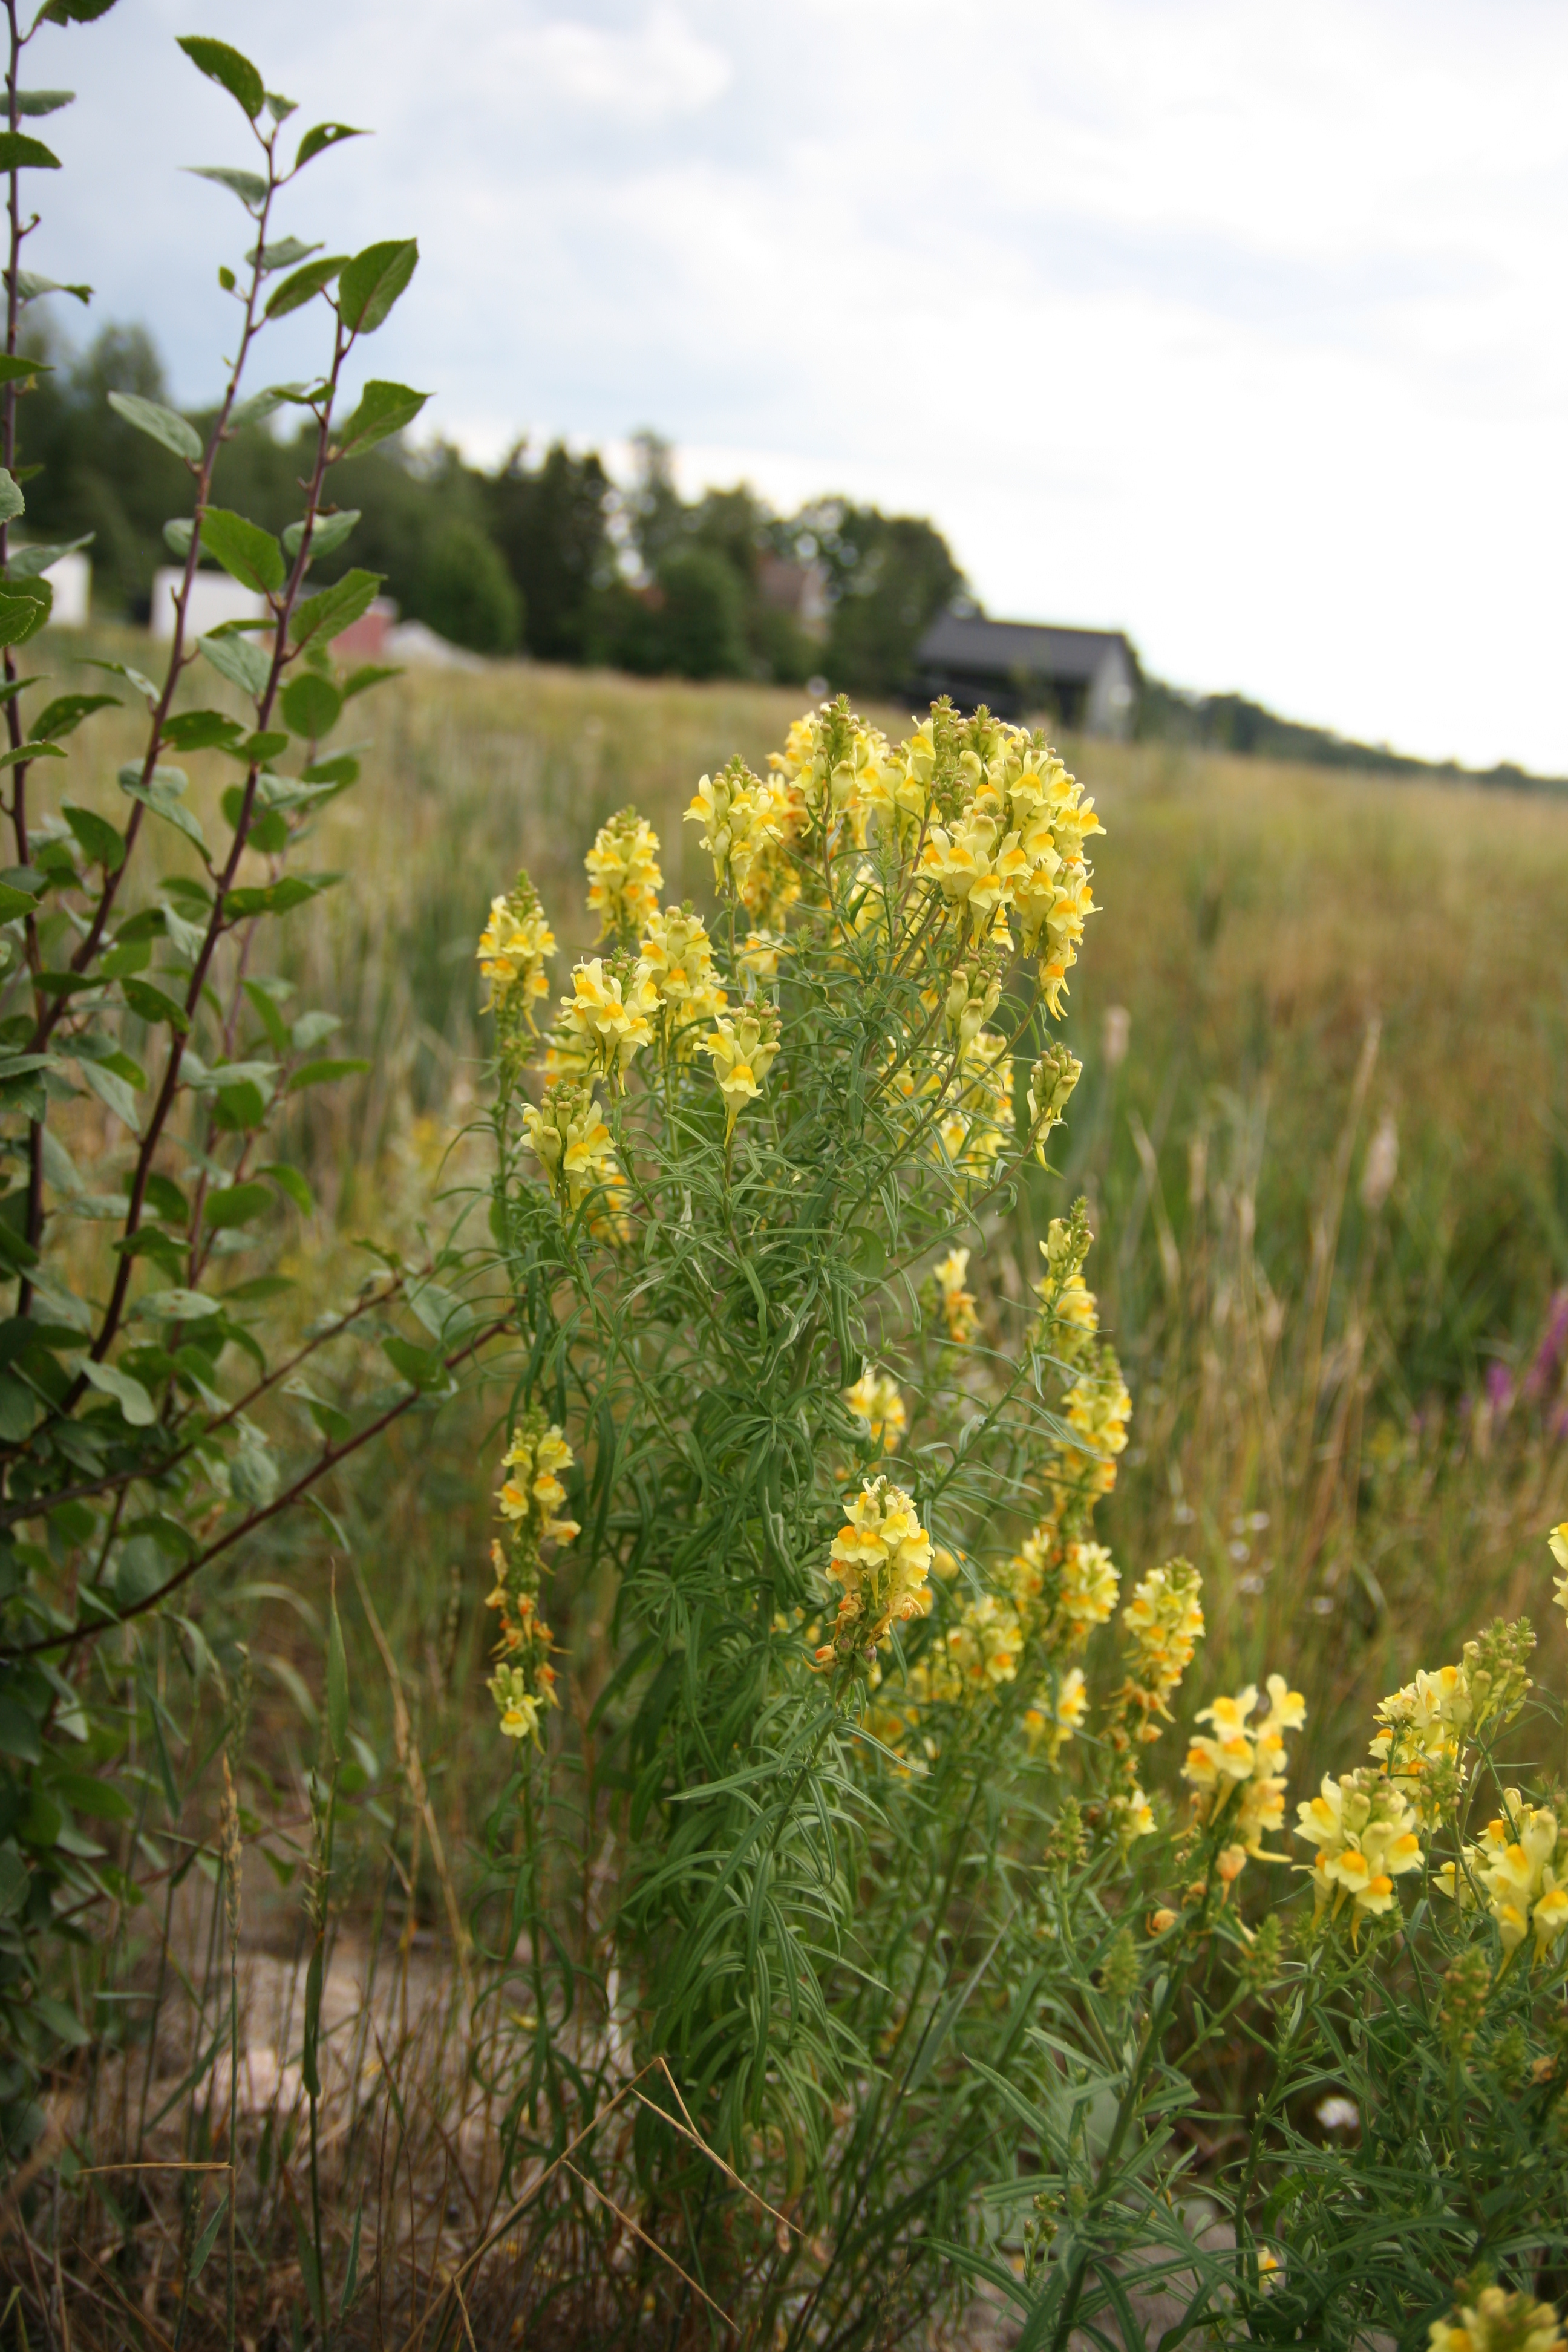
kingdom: Plantae
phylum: Tracheophyta
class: Magnoliopsida
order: Lamiales
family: Plantaginaceae
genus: Linaria
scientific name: Linaria vulgaris
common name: Butter and eggs
